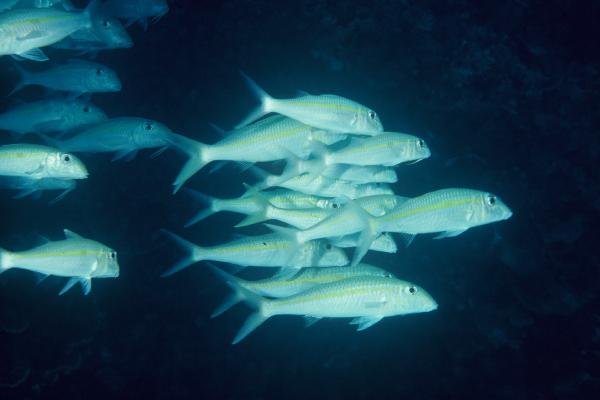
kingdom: Animalia
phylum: Chordata
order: Perciformes
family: Mullidae
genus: Mulloidichthys
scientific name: Mulloidichthys flavolineatus
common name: Yellowstripe goatfish
